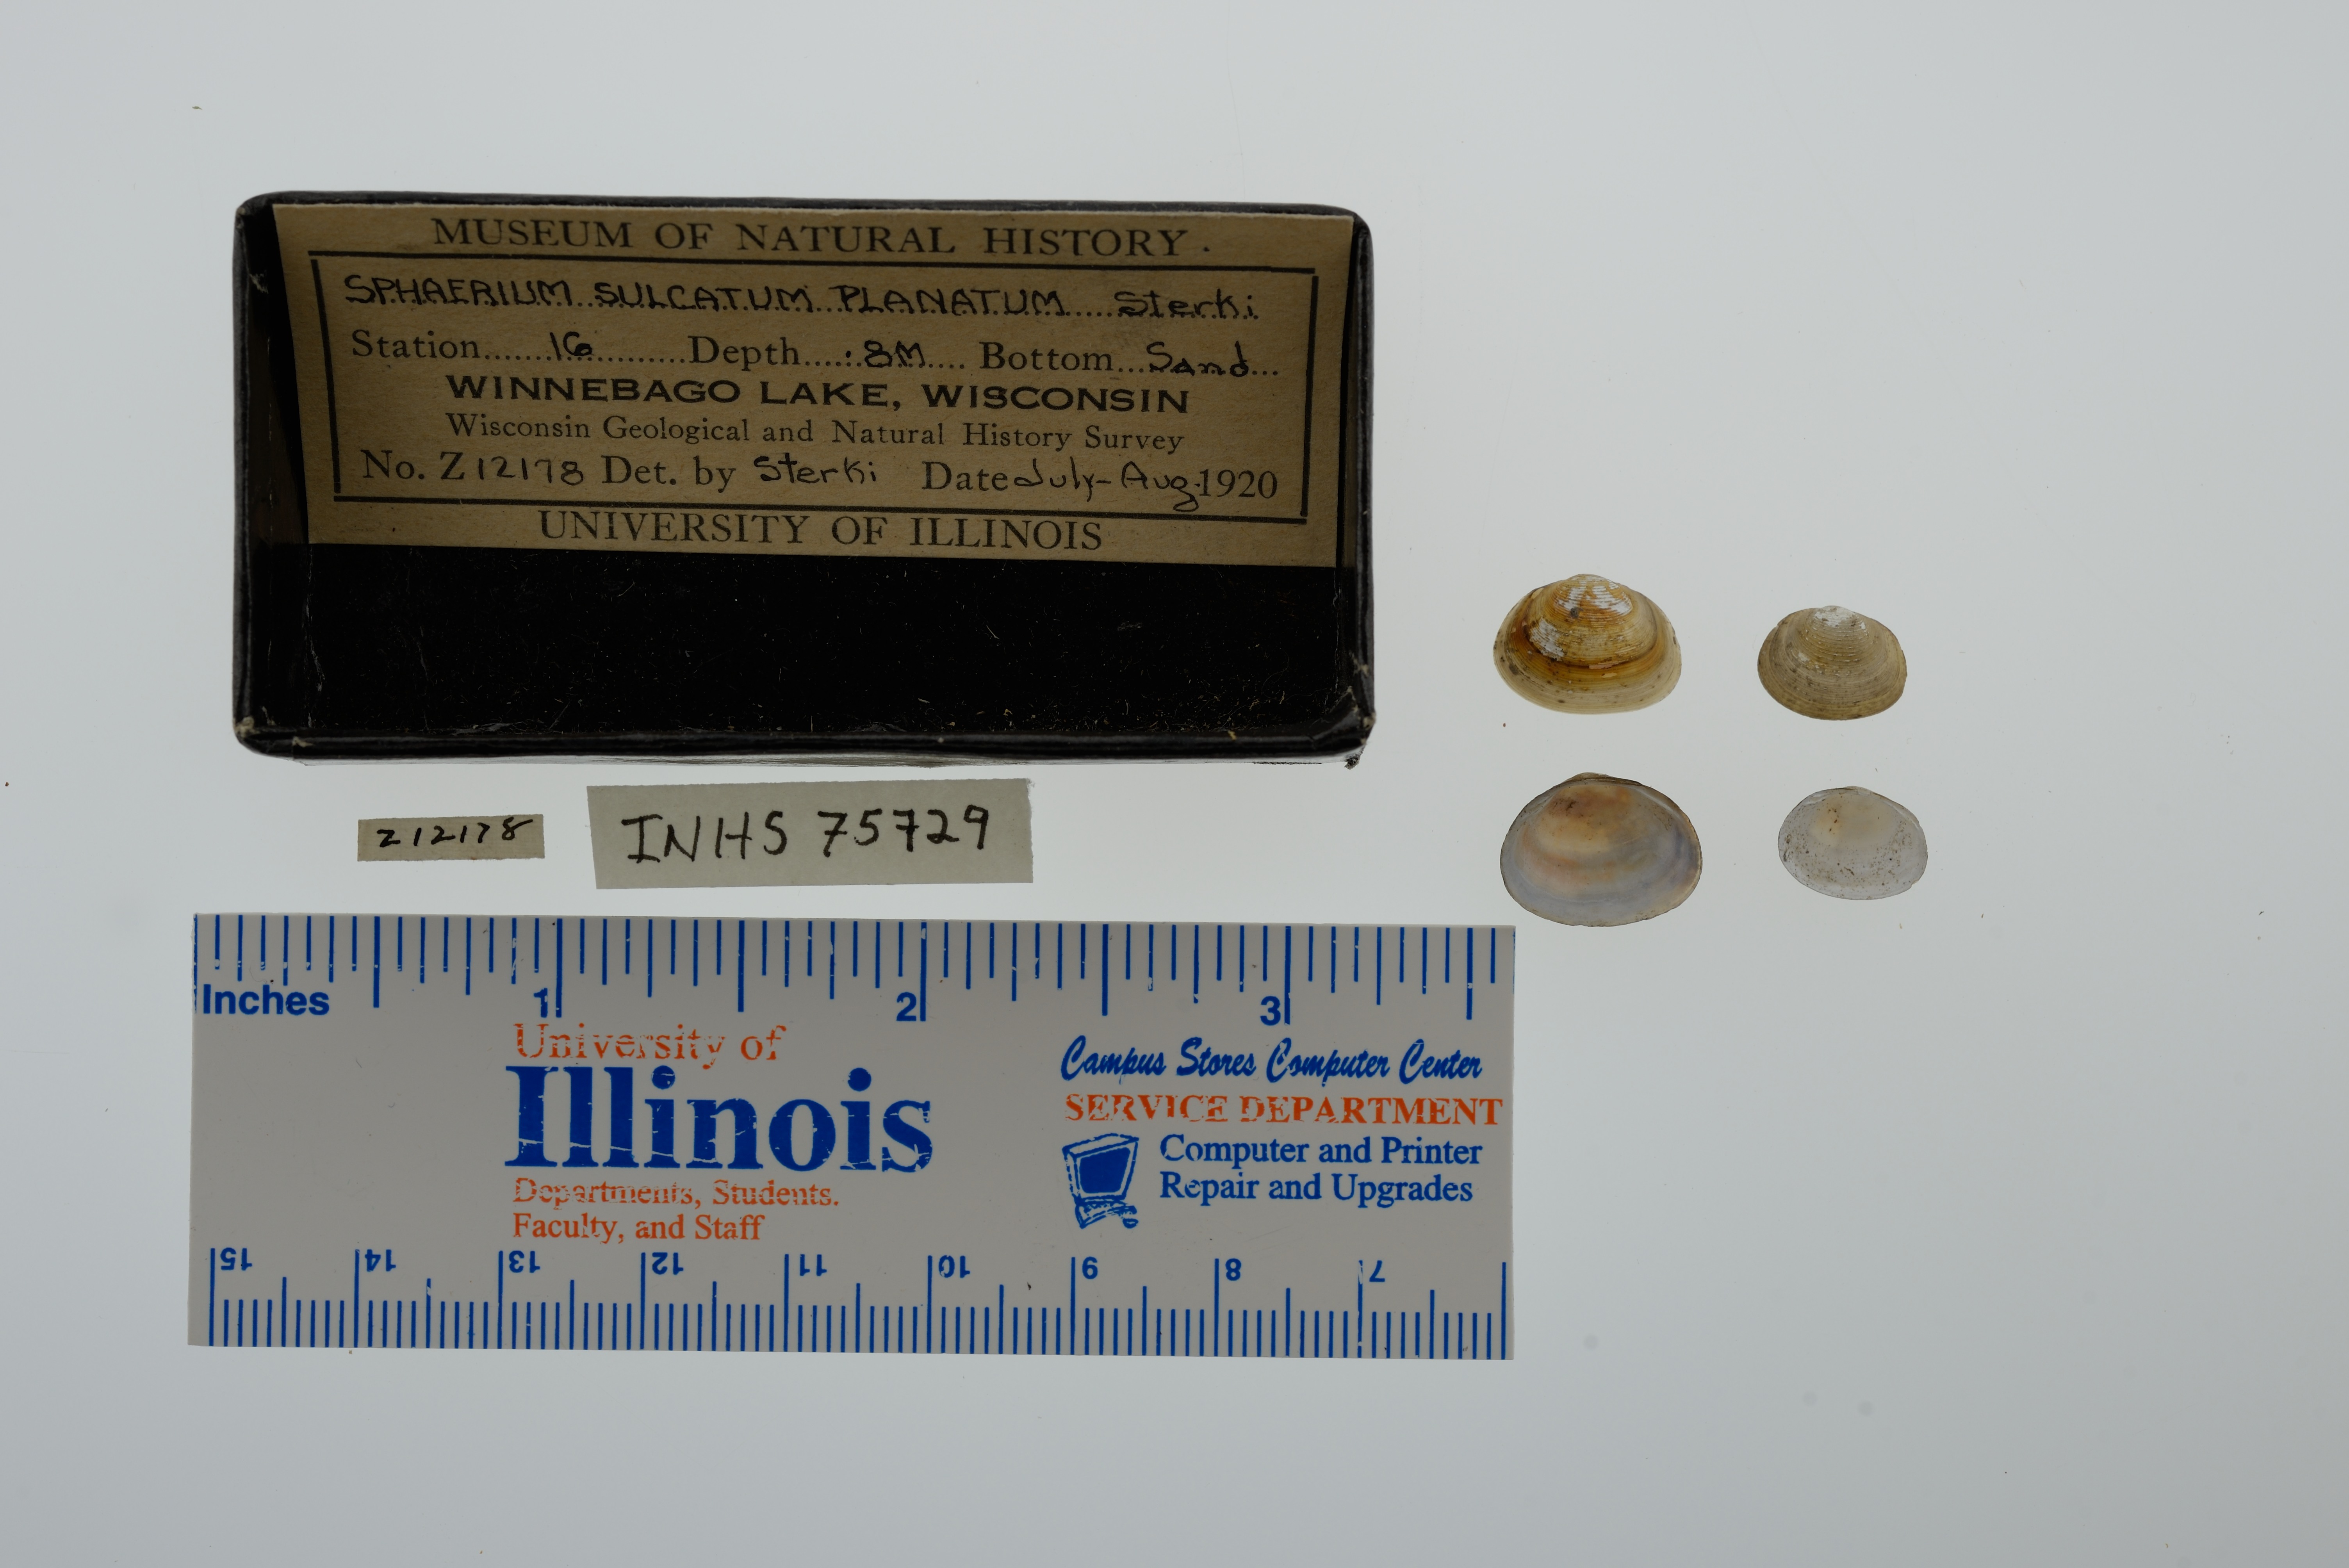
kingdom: Animalia
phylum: Mollusca
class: Bivalvia
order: Sphaeriida
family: Sphaeriidae
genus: Sphaerium
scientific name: Sphaerium simile
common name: Grooved fingernailclam
